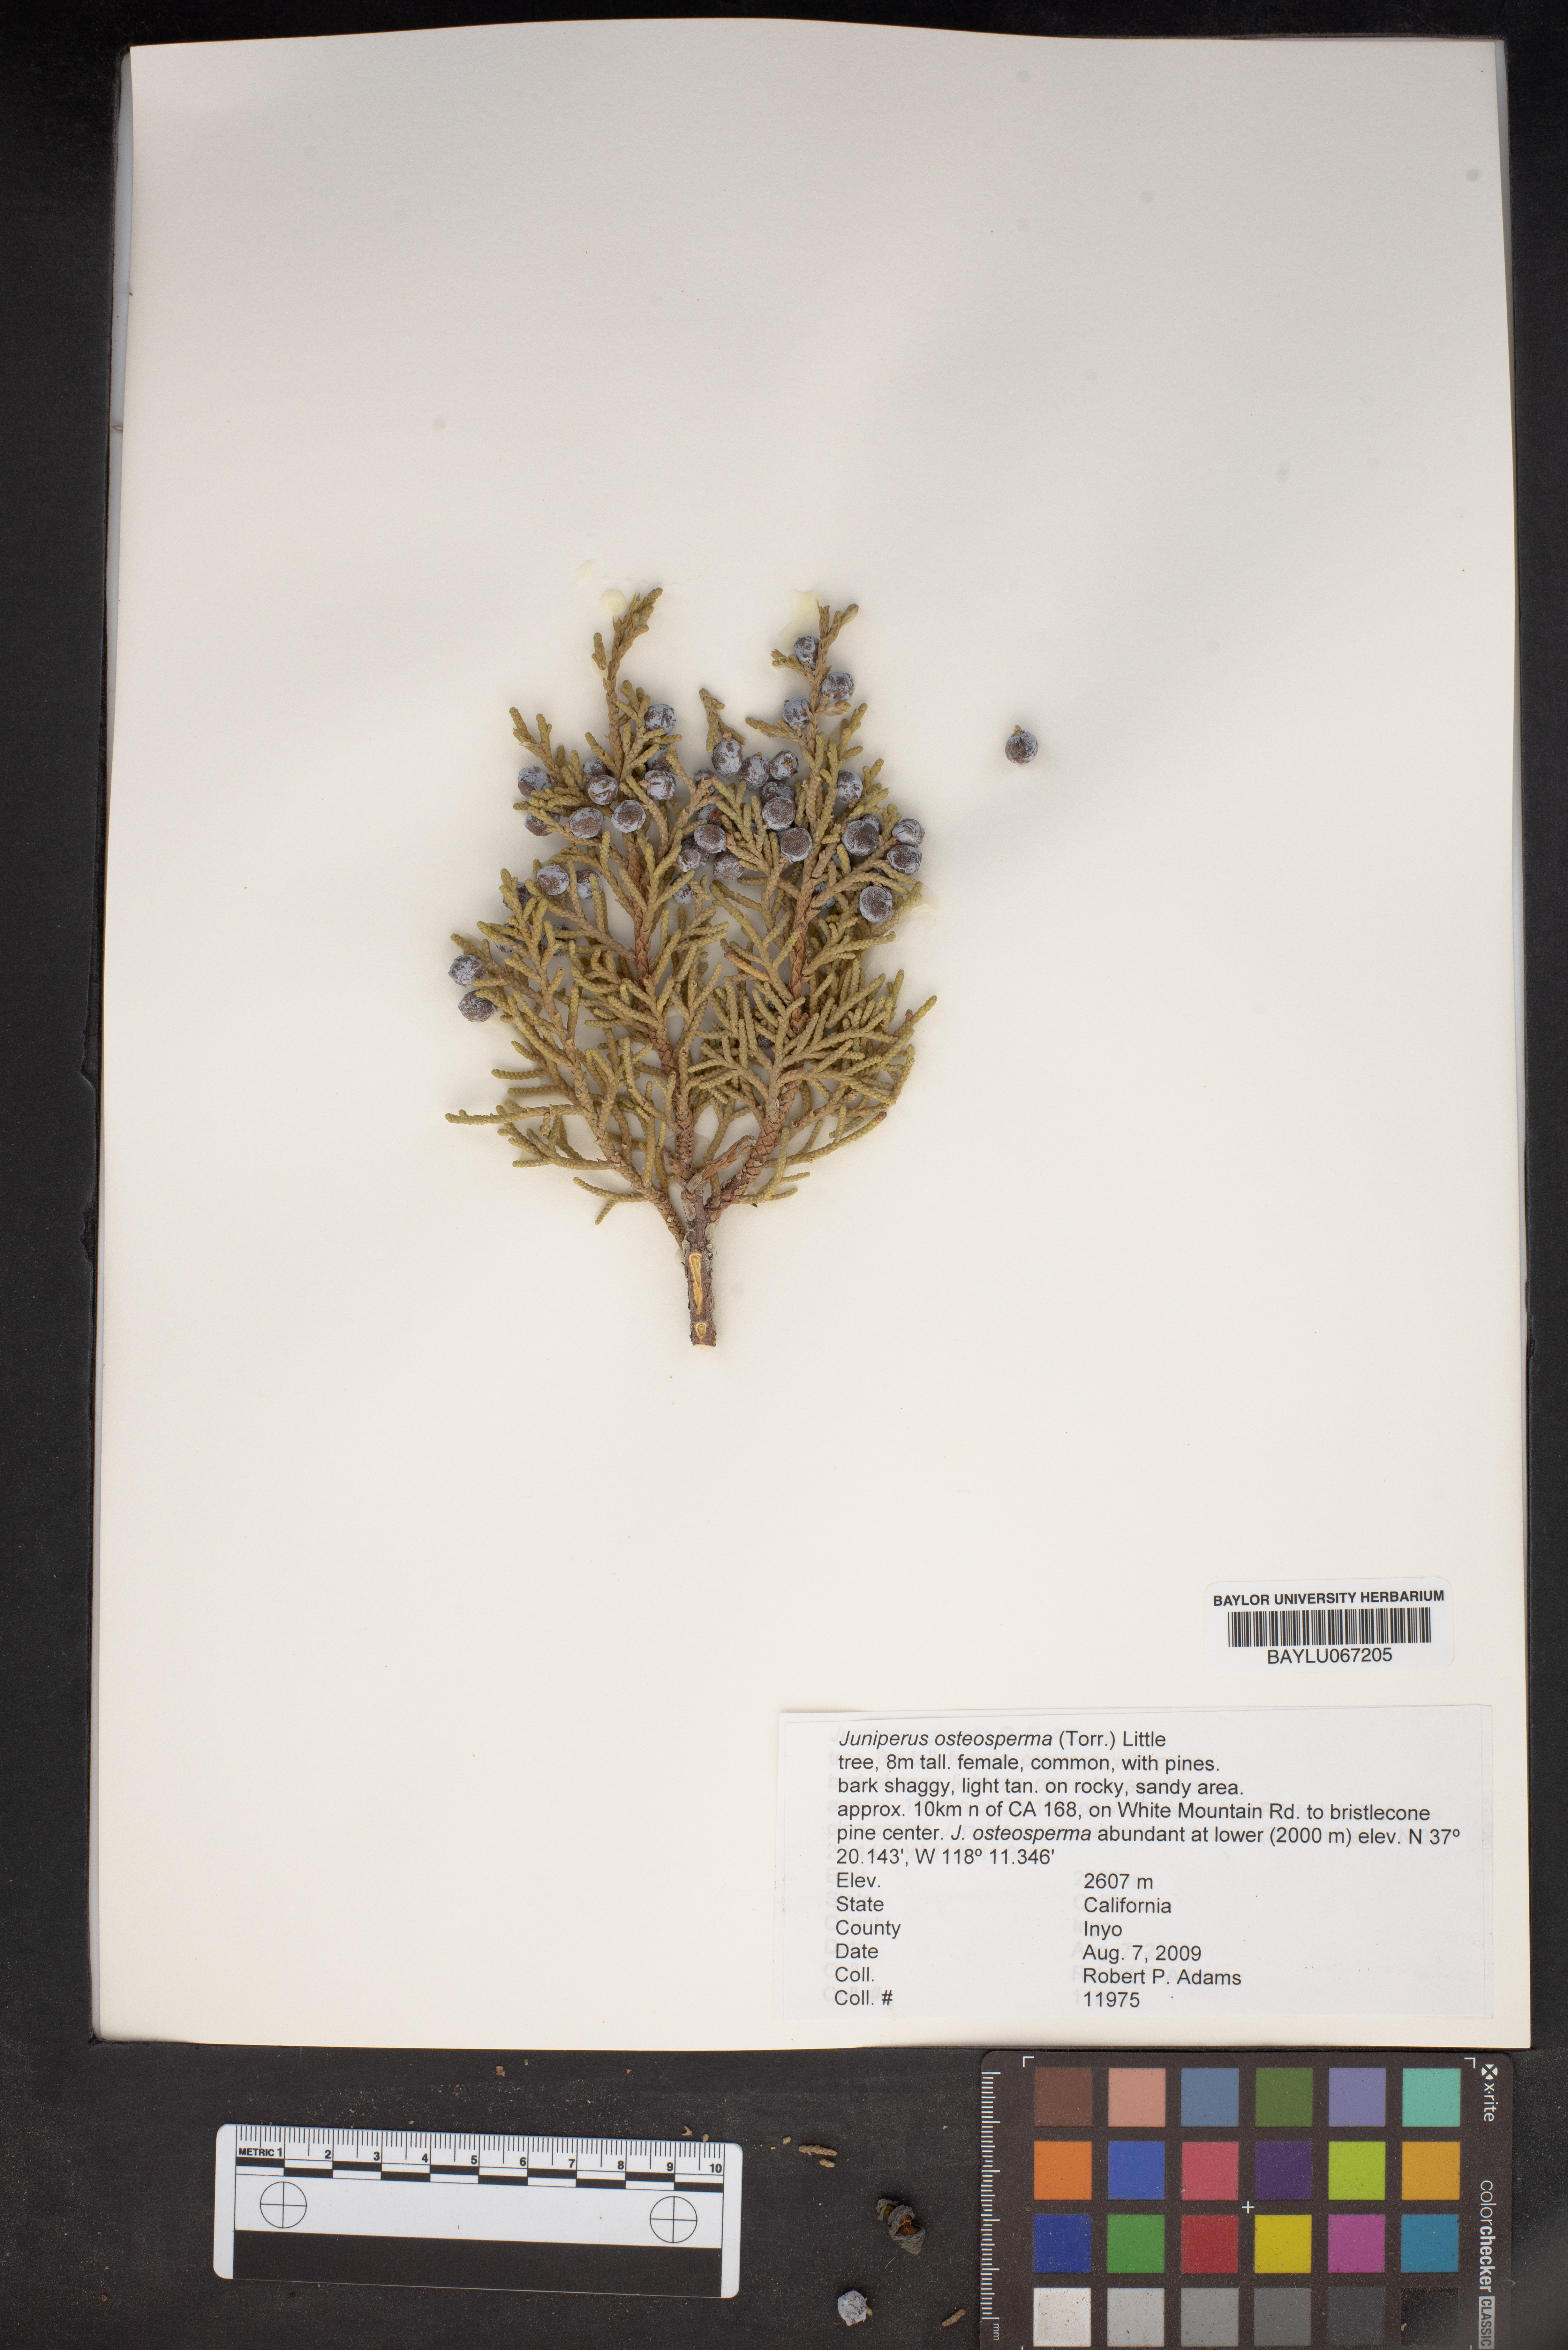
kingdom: Plantae
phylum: Tracheophyta
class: Pinopsida
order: Pinales
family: Cupressaceae
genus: Juniperus
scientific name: Juniperus osteosperma
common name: Utah juniper
